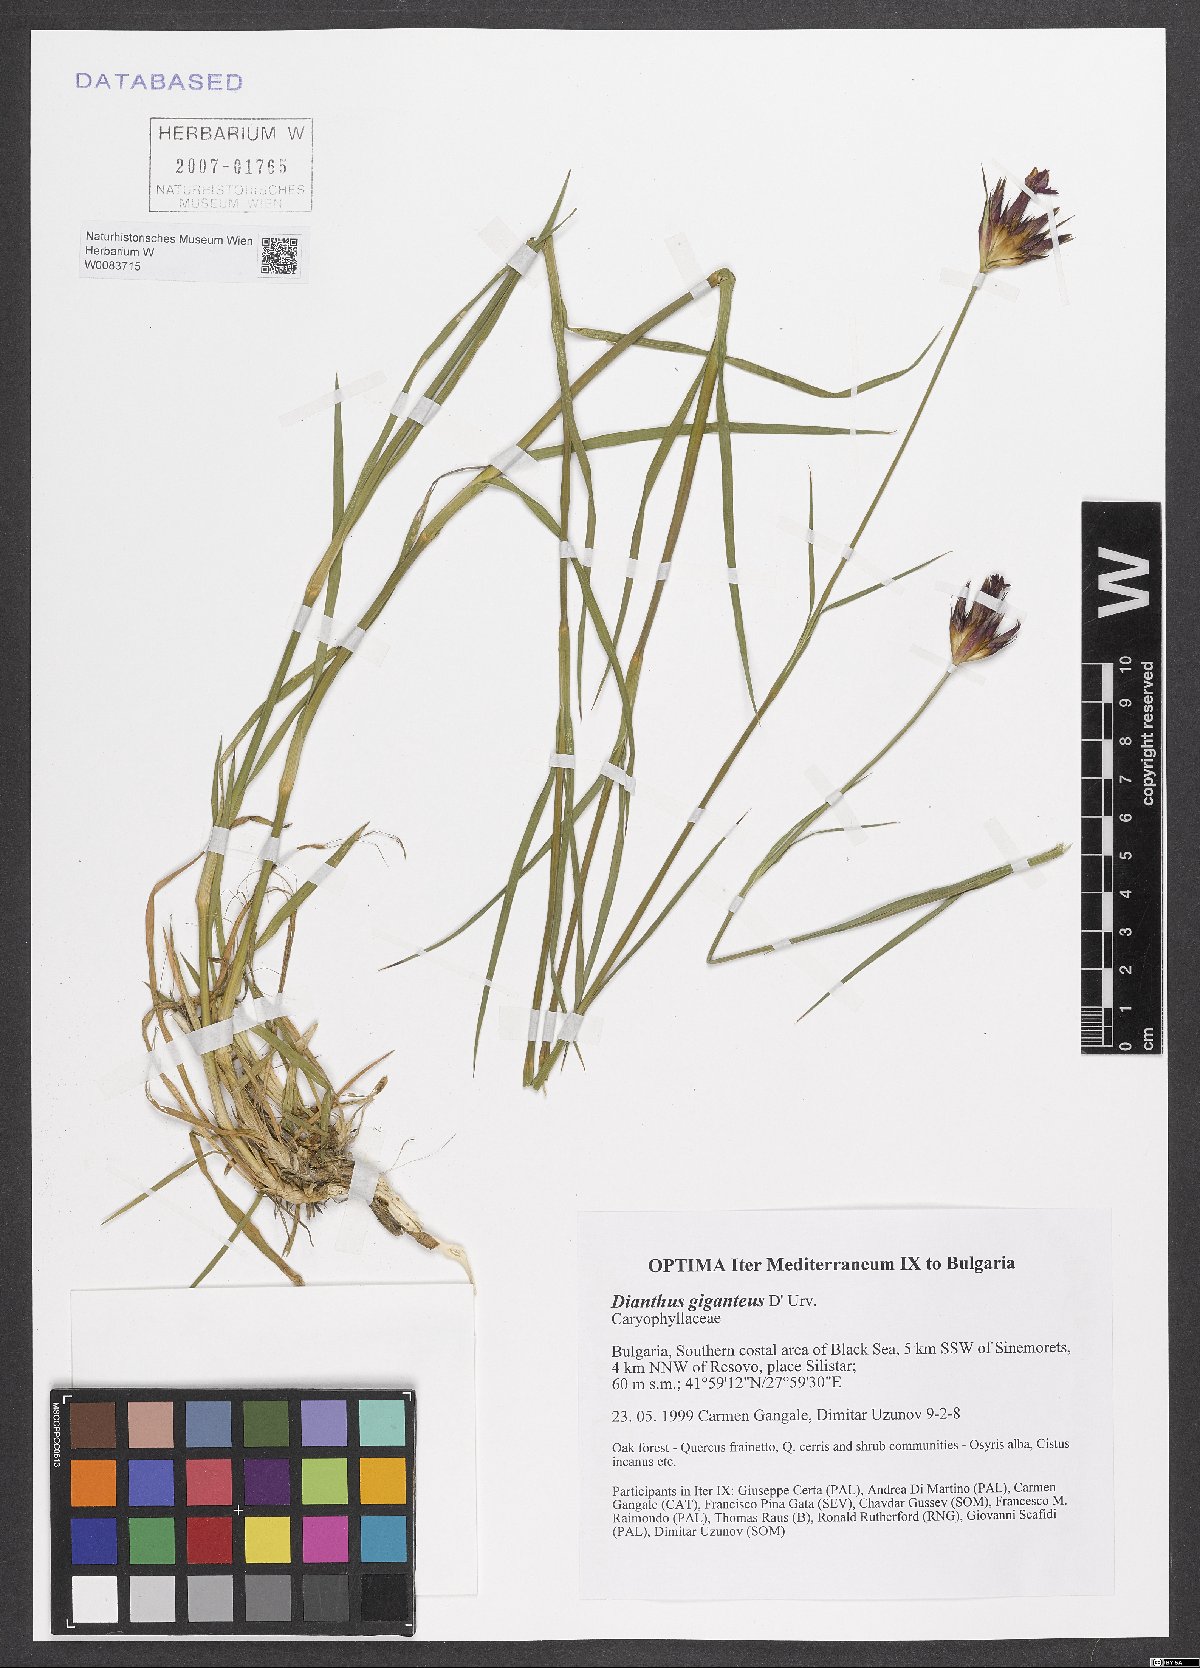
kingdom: Plantae
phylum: Tracheophyta
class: Magnoliopsida
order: Caryophyllales
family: Caryophyllaceae
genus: Dianthus
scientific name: Dianthus giganteus
